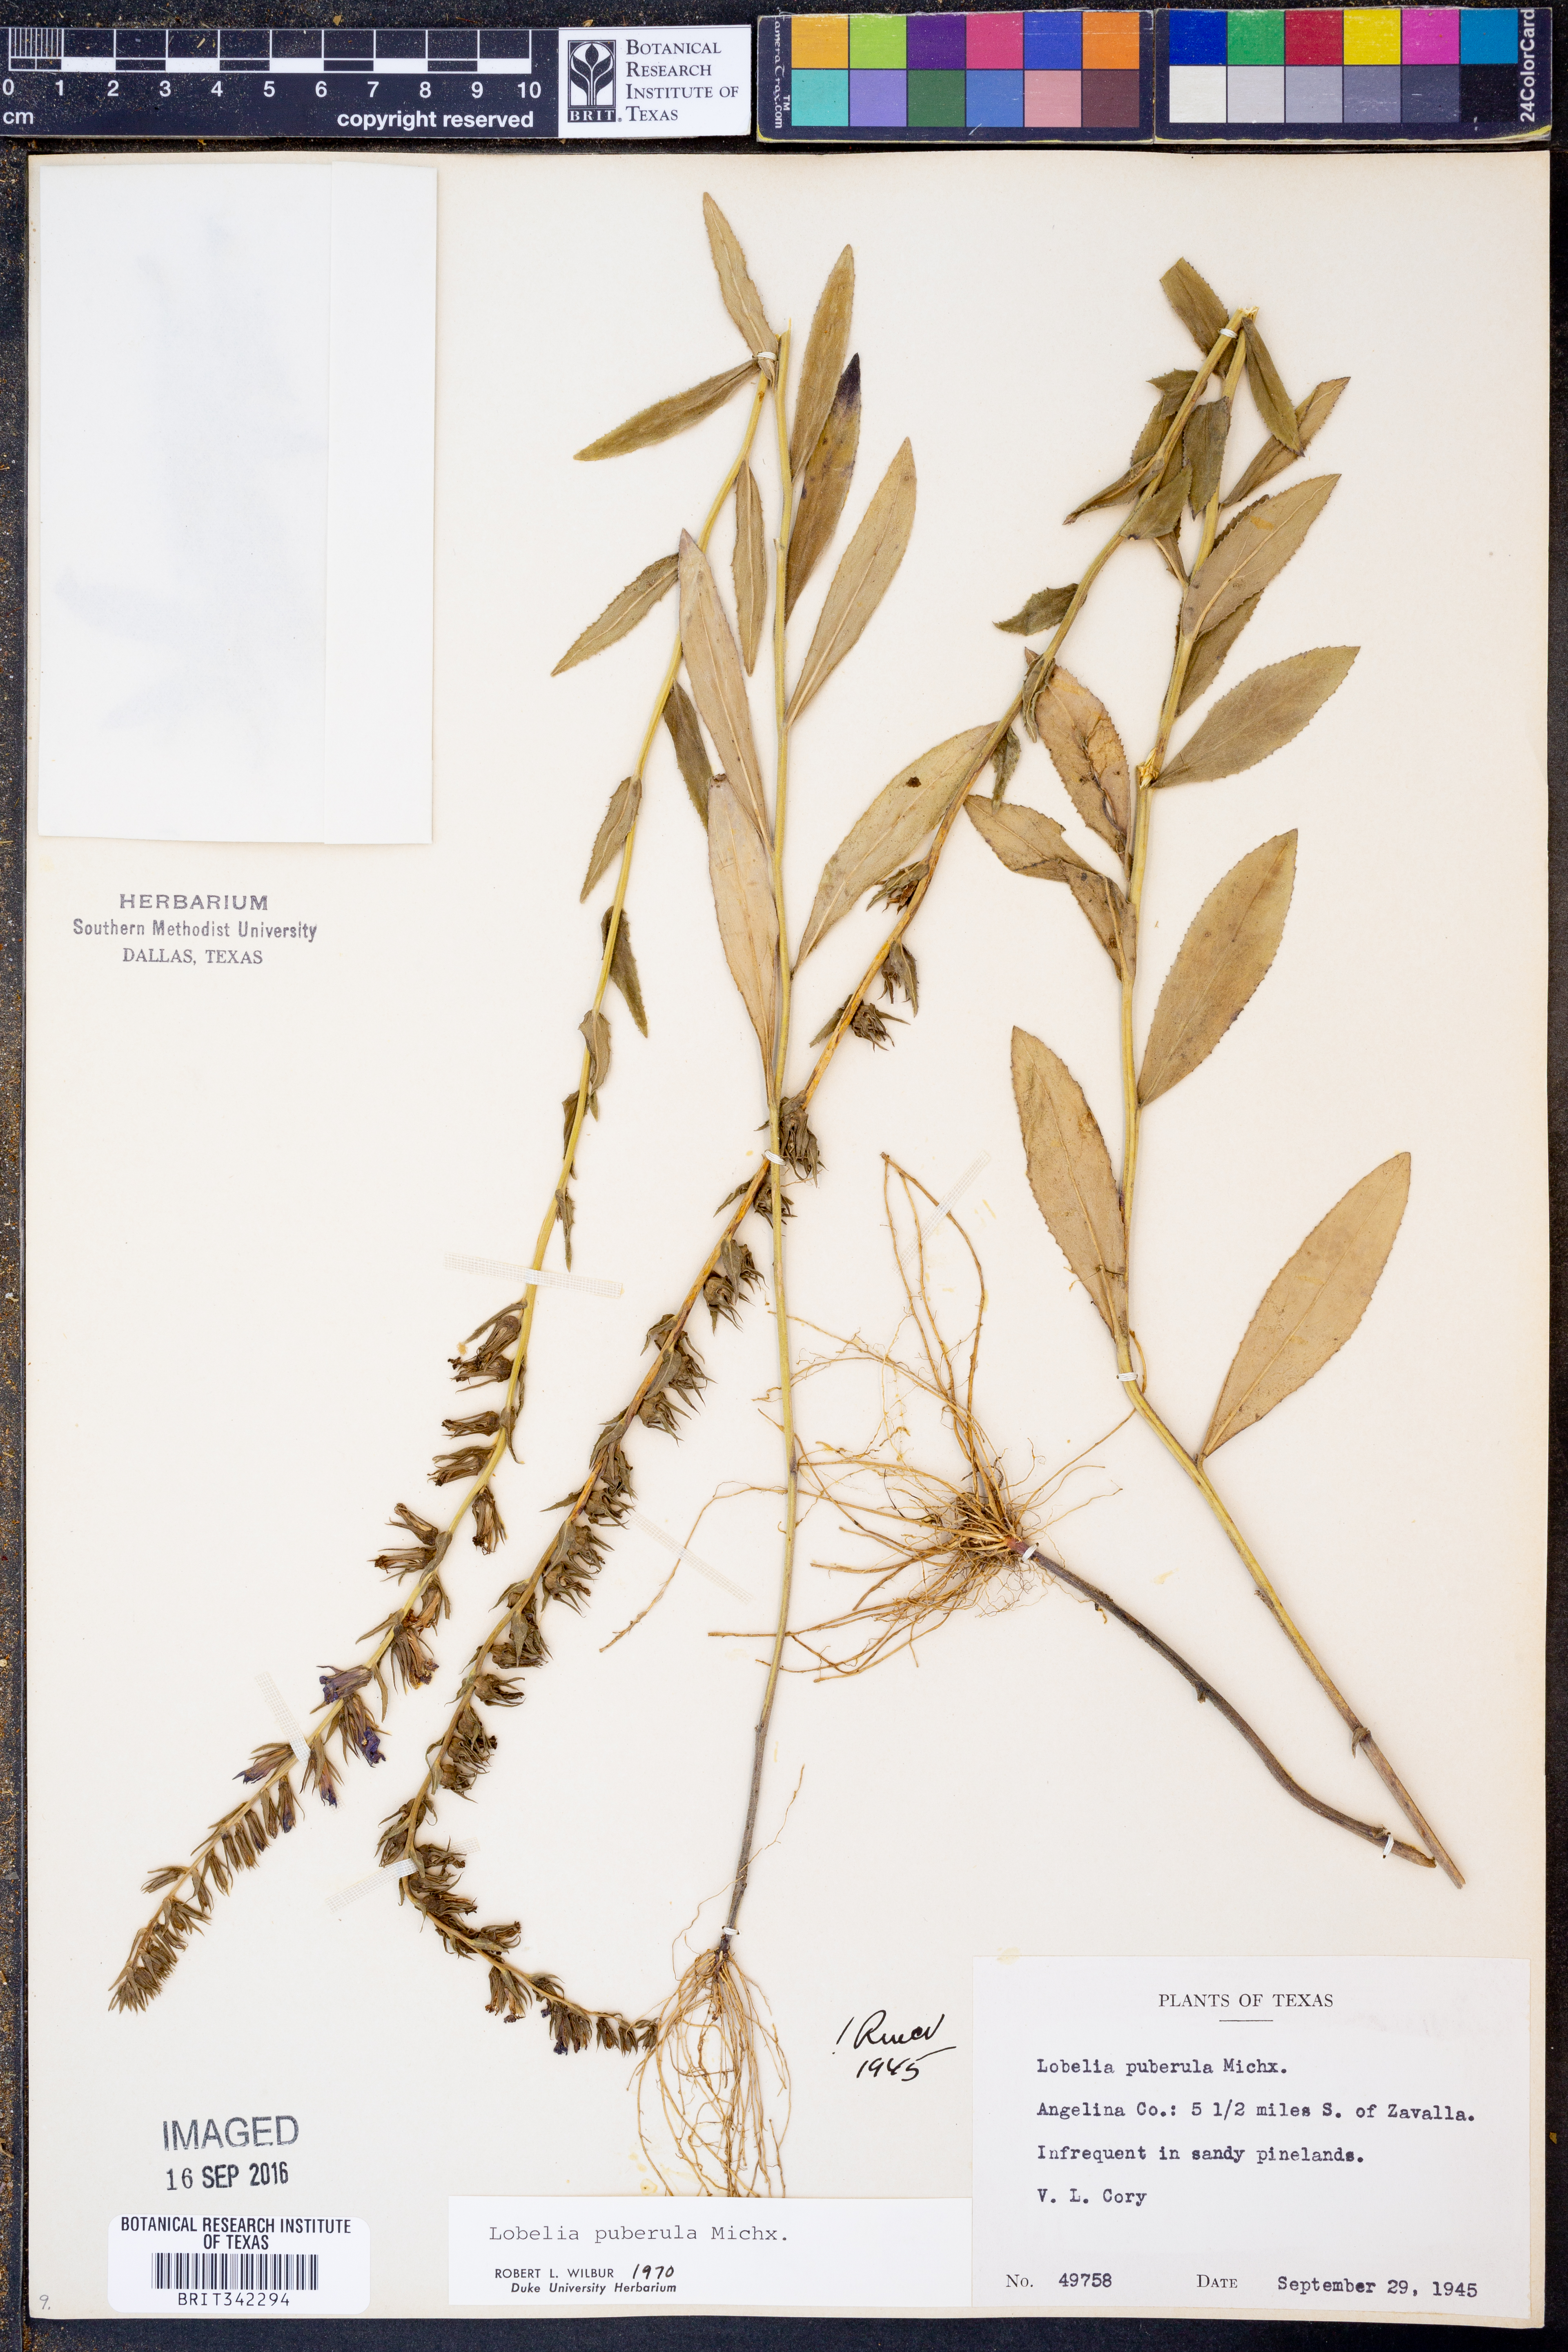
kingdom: Plantae
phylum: Tracheophyta
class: Magnoliopsida
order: Asterales
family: Campanulaceae
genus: Lobelia
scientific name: Lobelia puberula
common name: Purple dewdrop
